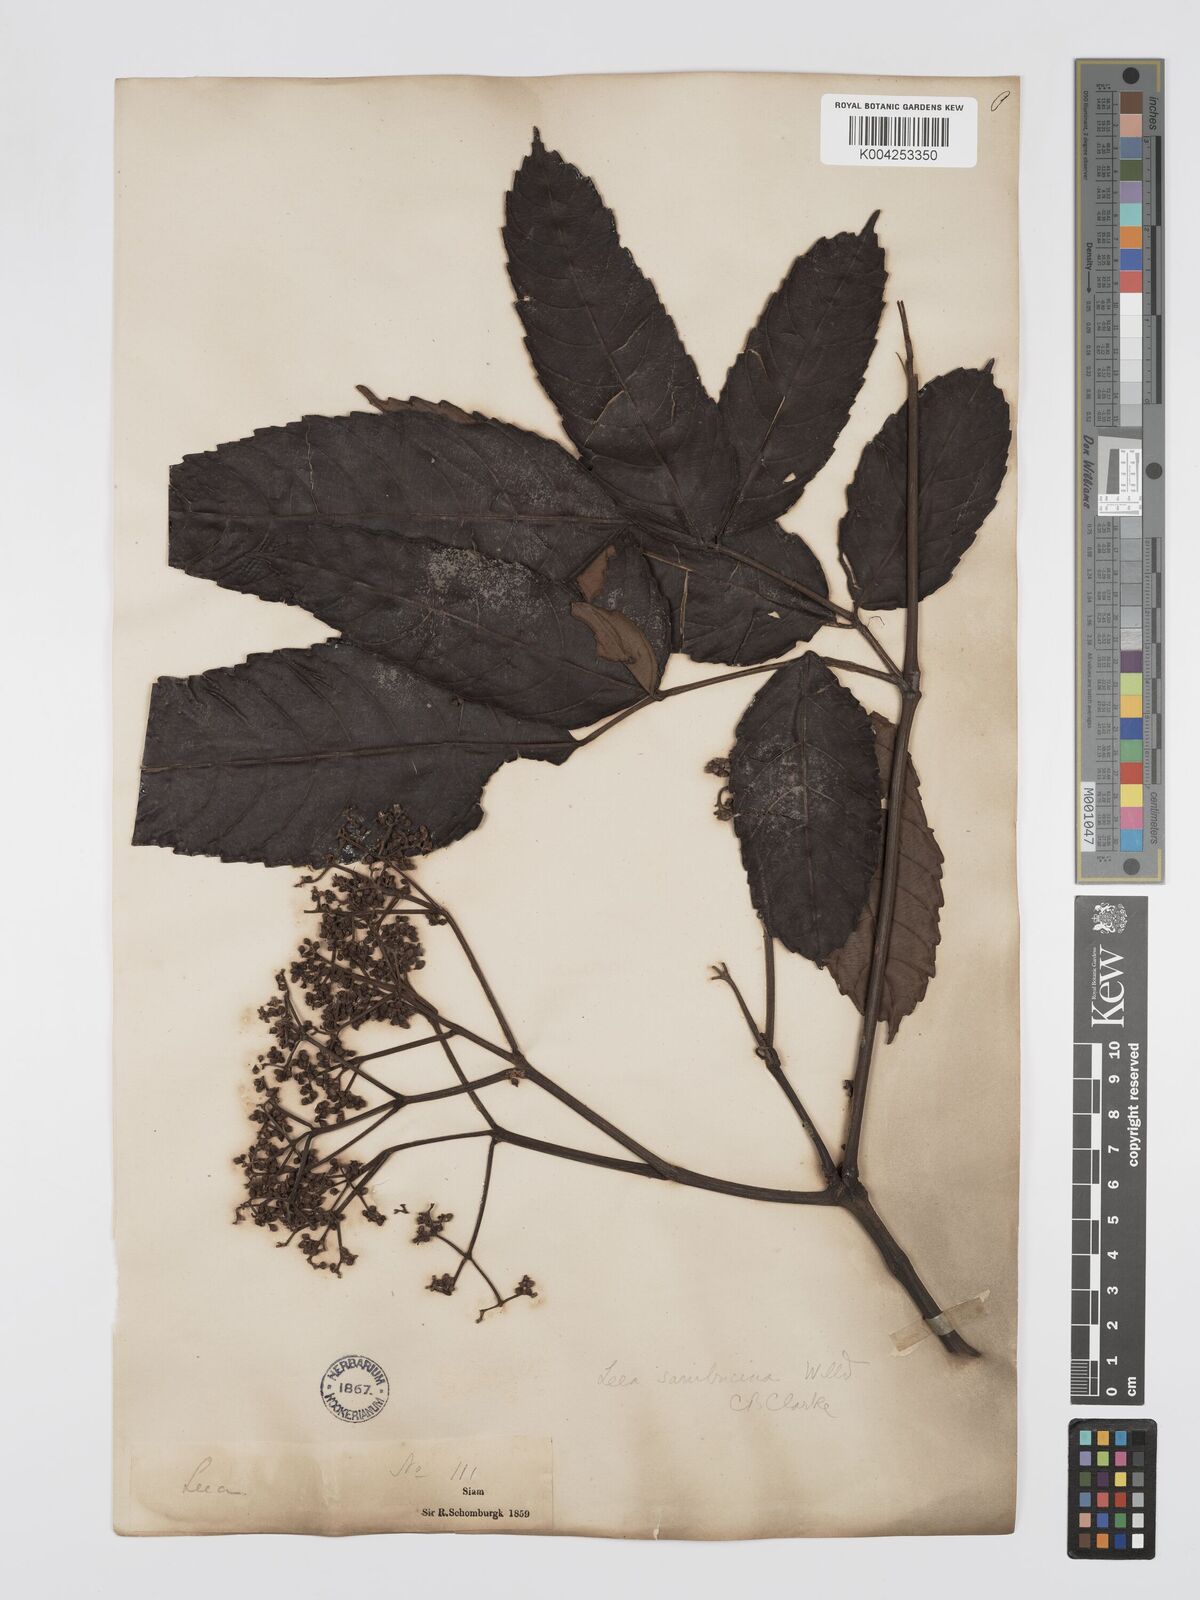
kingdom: Plantae
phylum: Tracheophyta
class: Magnoliopsida
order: Vitales
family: Vitaceae
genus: Leea
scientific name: Leea indica
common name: Bandicoot-berry
